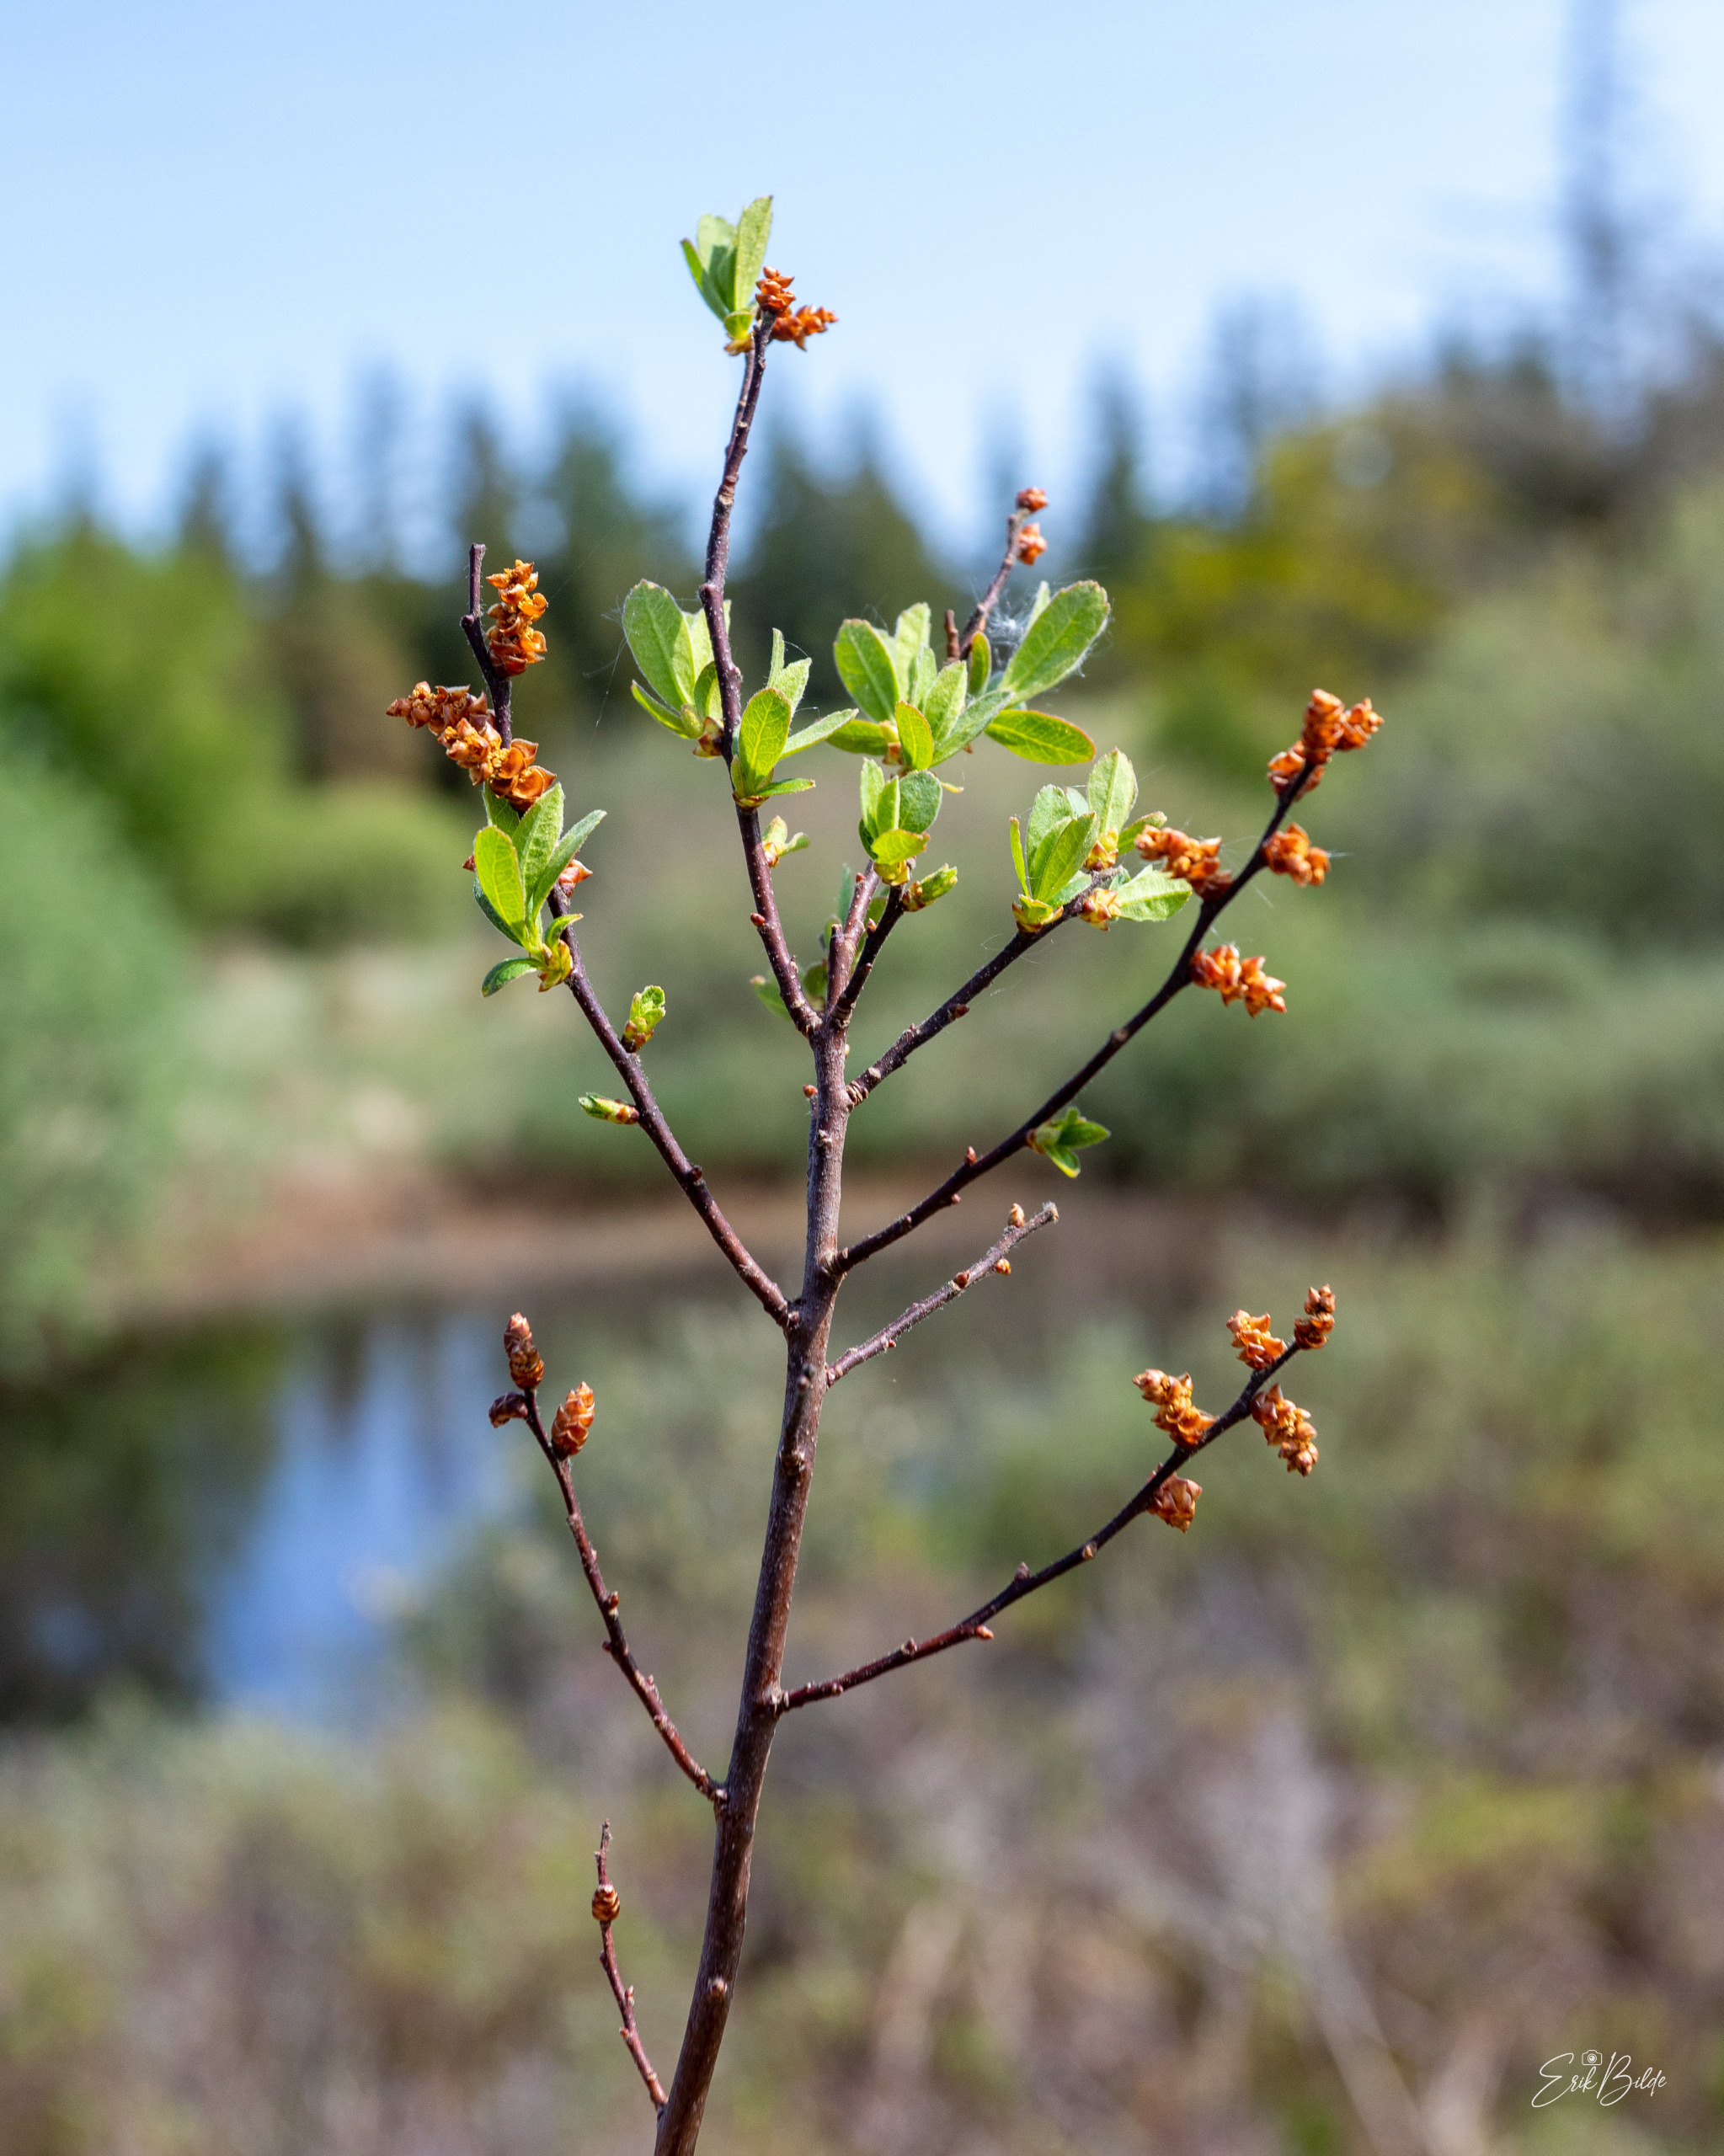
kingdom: Plantae
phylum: Tracheophyta
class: Magnoliopsida
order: Fagales
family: Myricaceae
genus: Myrica
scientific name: Myrica gale
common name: Pors
